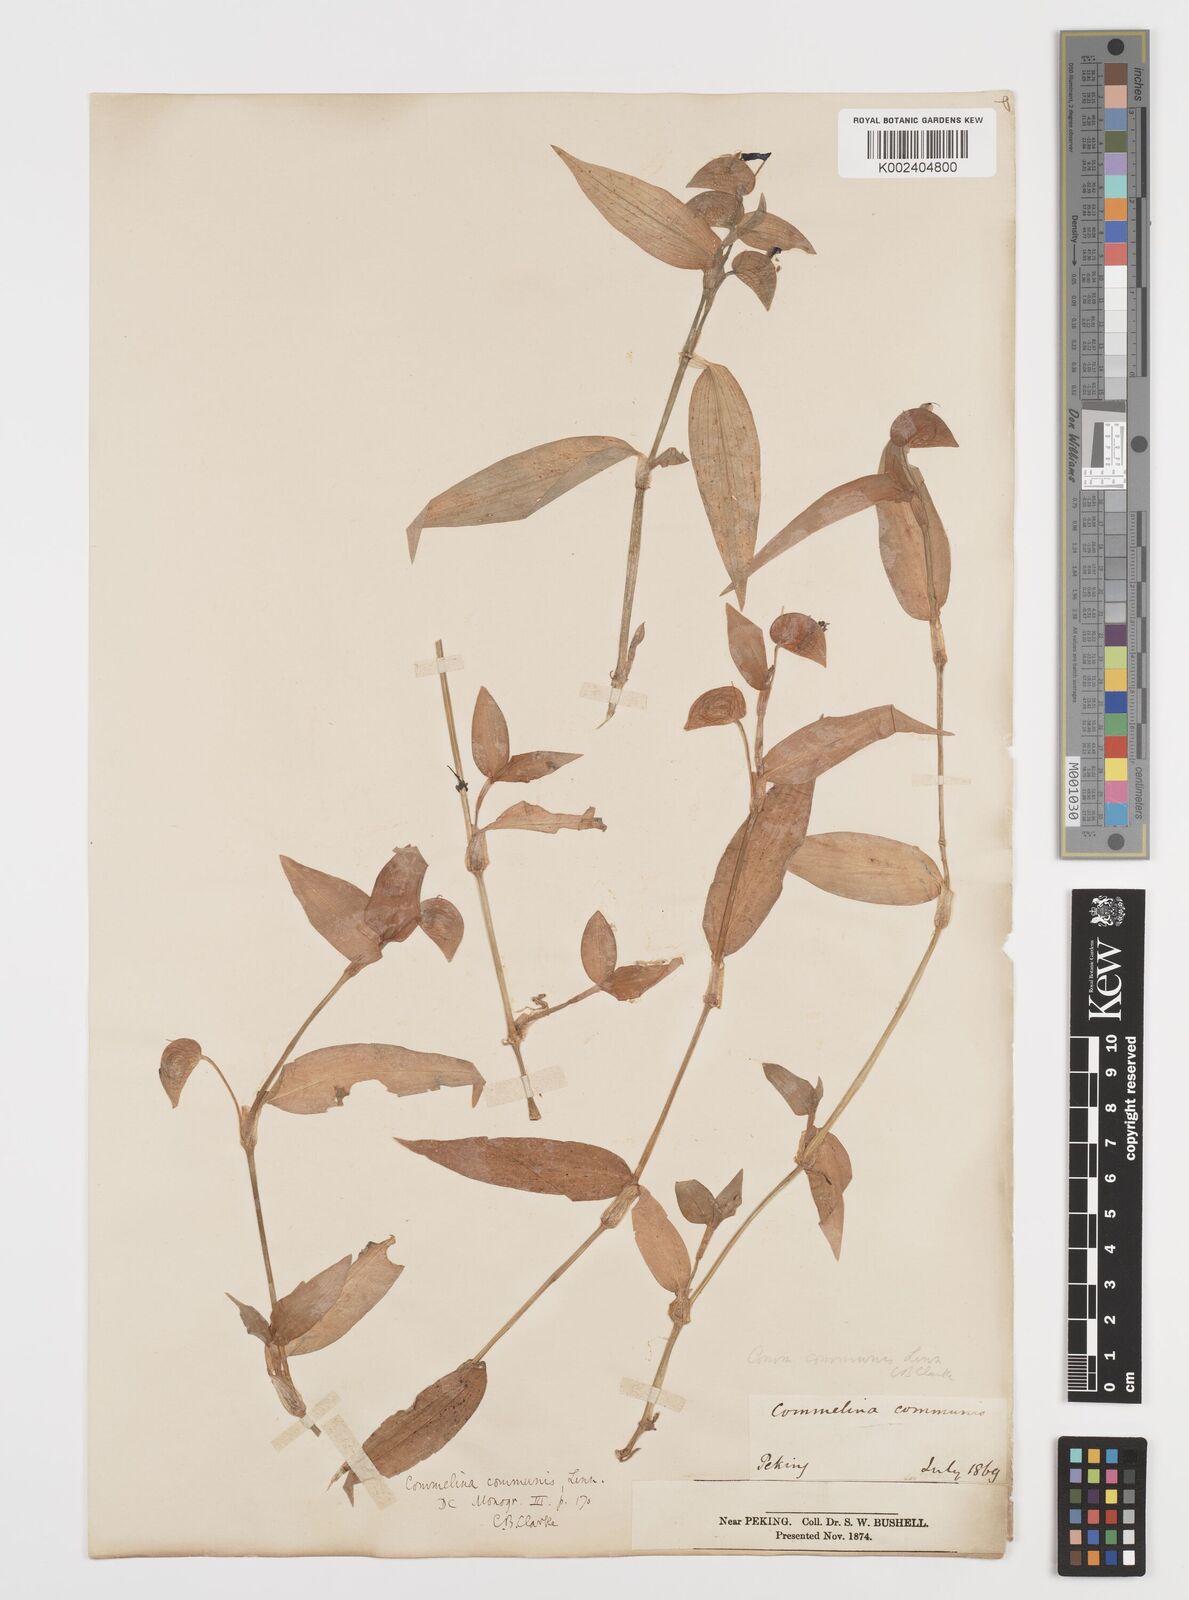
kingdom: Plantae
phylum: Tracheophyta
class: Liliopsida
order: Commelinales
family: Commelinaceae
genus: Commelina
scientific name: Commelina communis
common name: Asiatic dayflower
